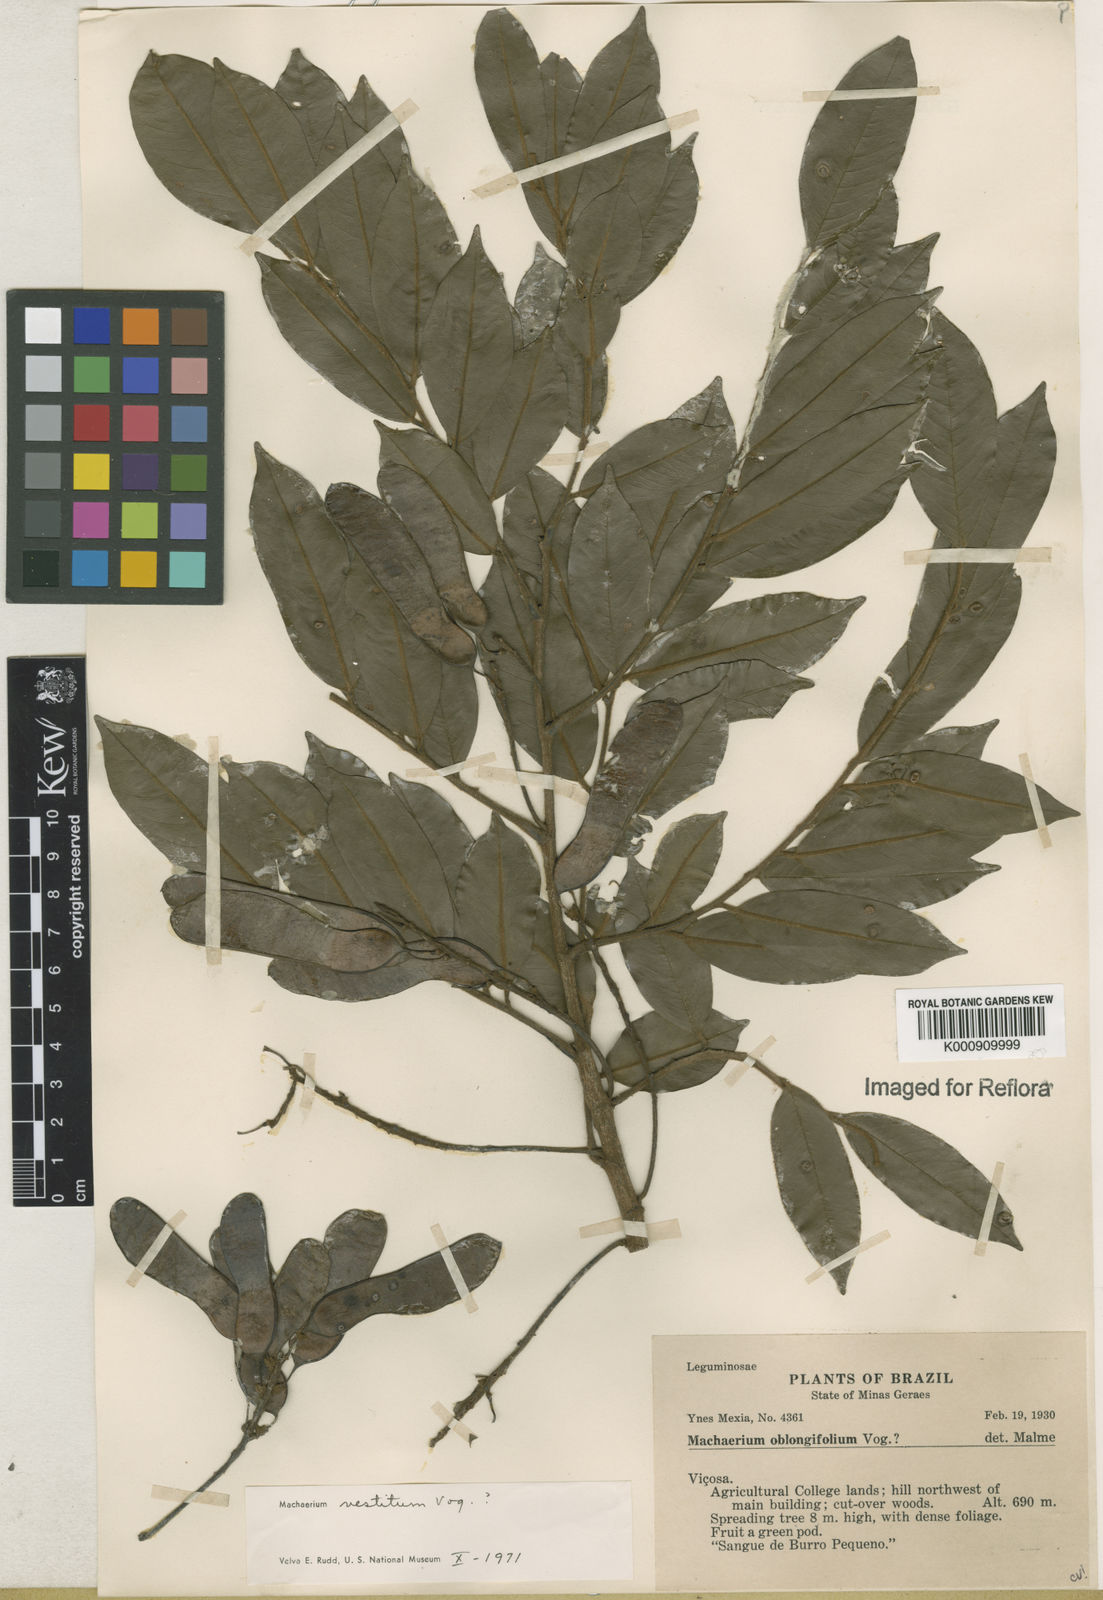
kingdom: Plantae
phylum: Tracheophyta
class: Magnoliopsida
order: Fabales
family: Fabaceae
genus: Machaerium
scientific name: Machaerium brasiliense
